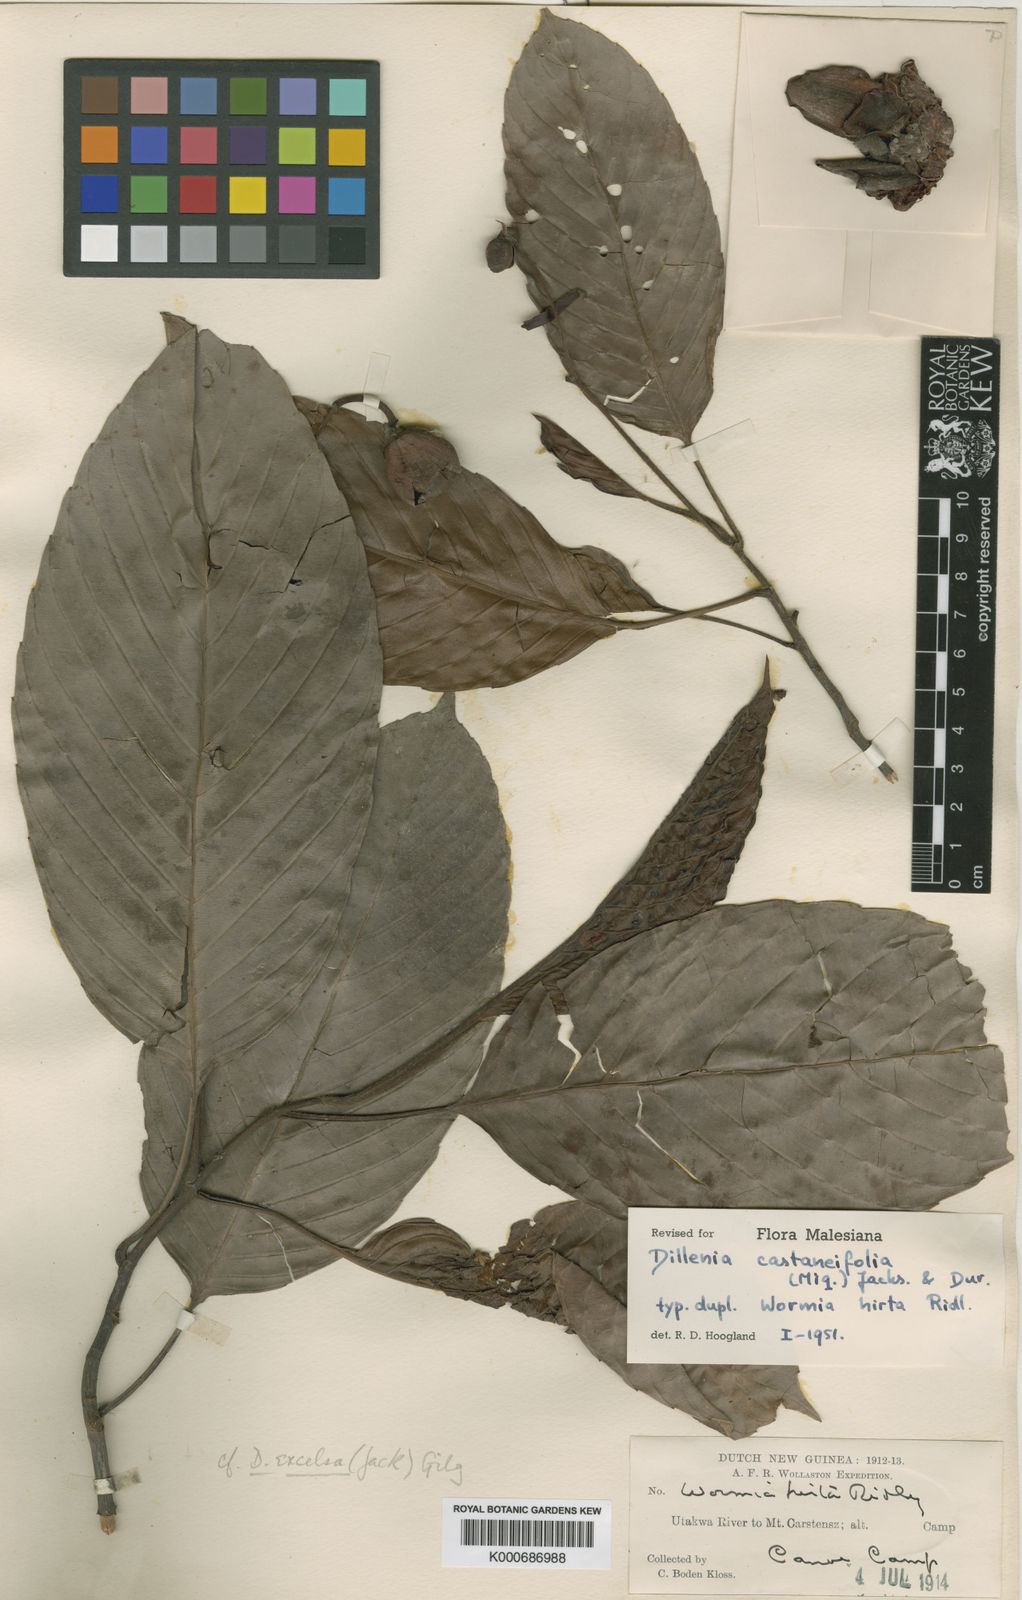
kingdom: Plantae
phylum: Tracheophyta
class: Magnoliopsida
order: Dilleniales
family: Dilleniaceae
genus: Dillenia
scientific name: Dillenia
